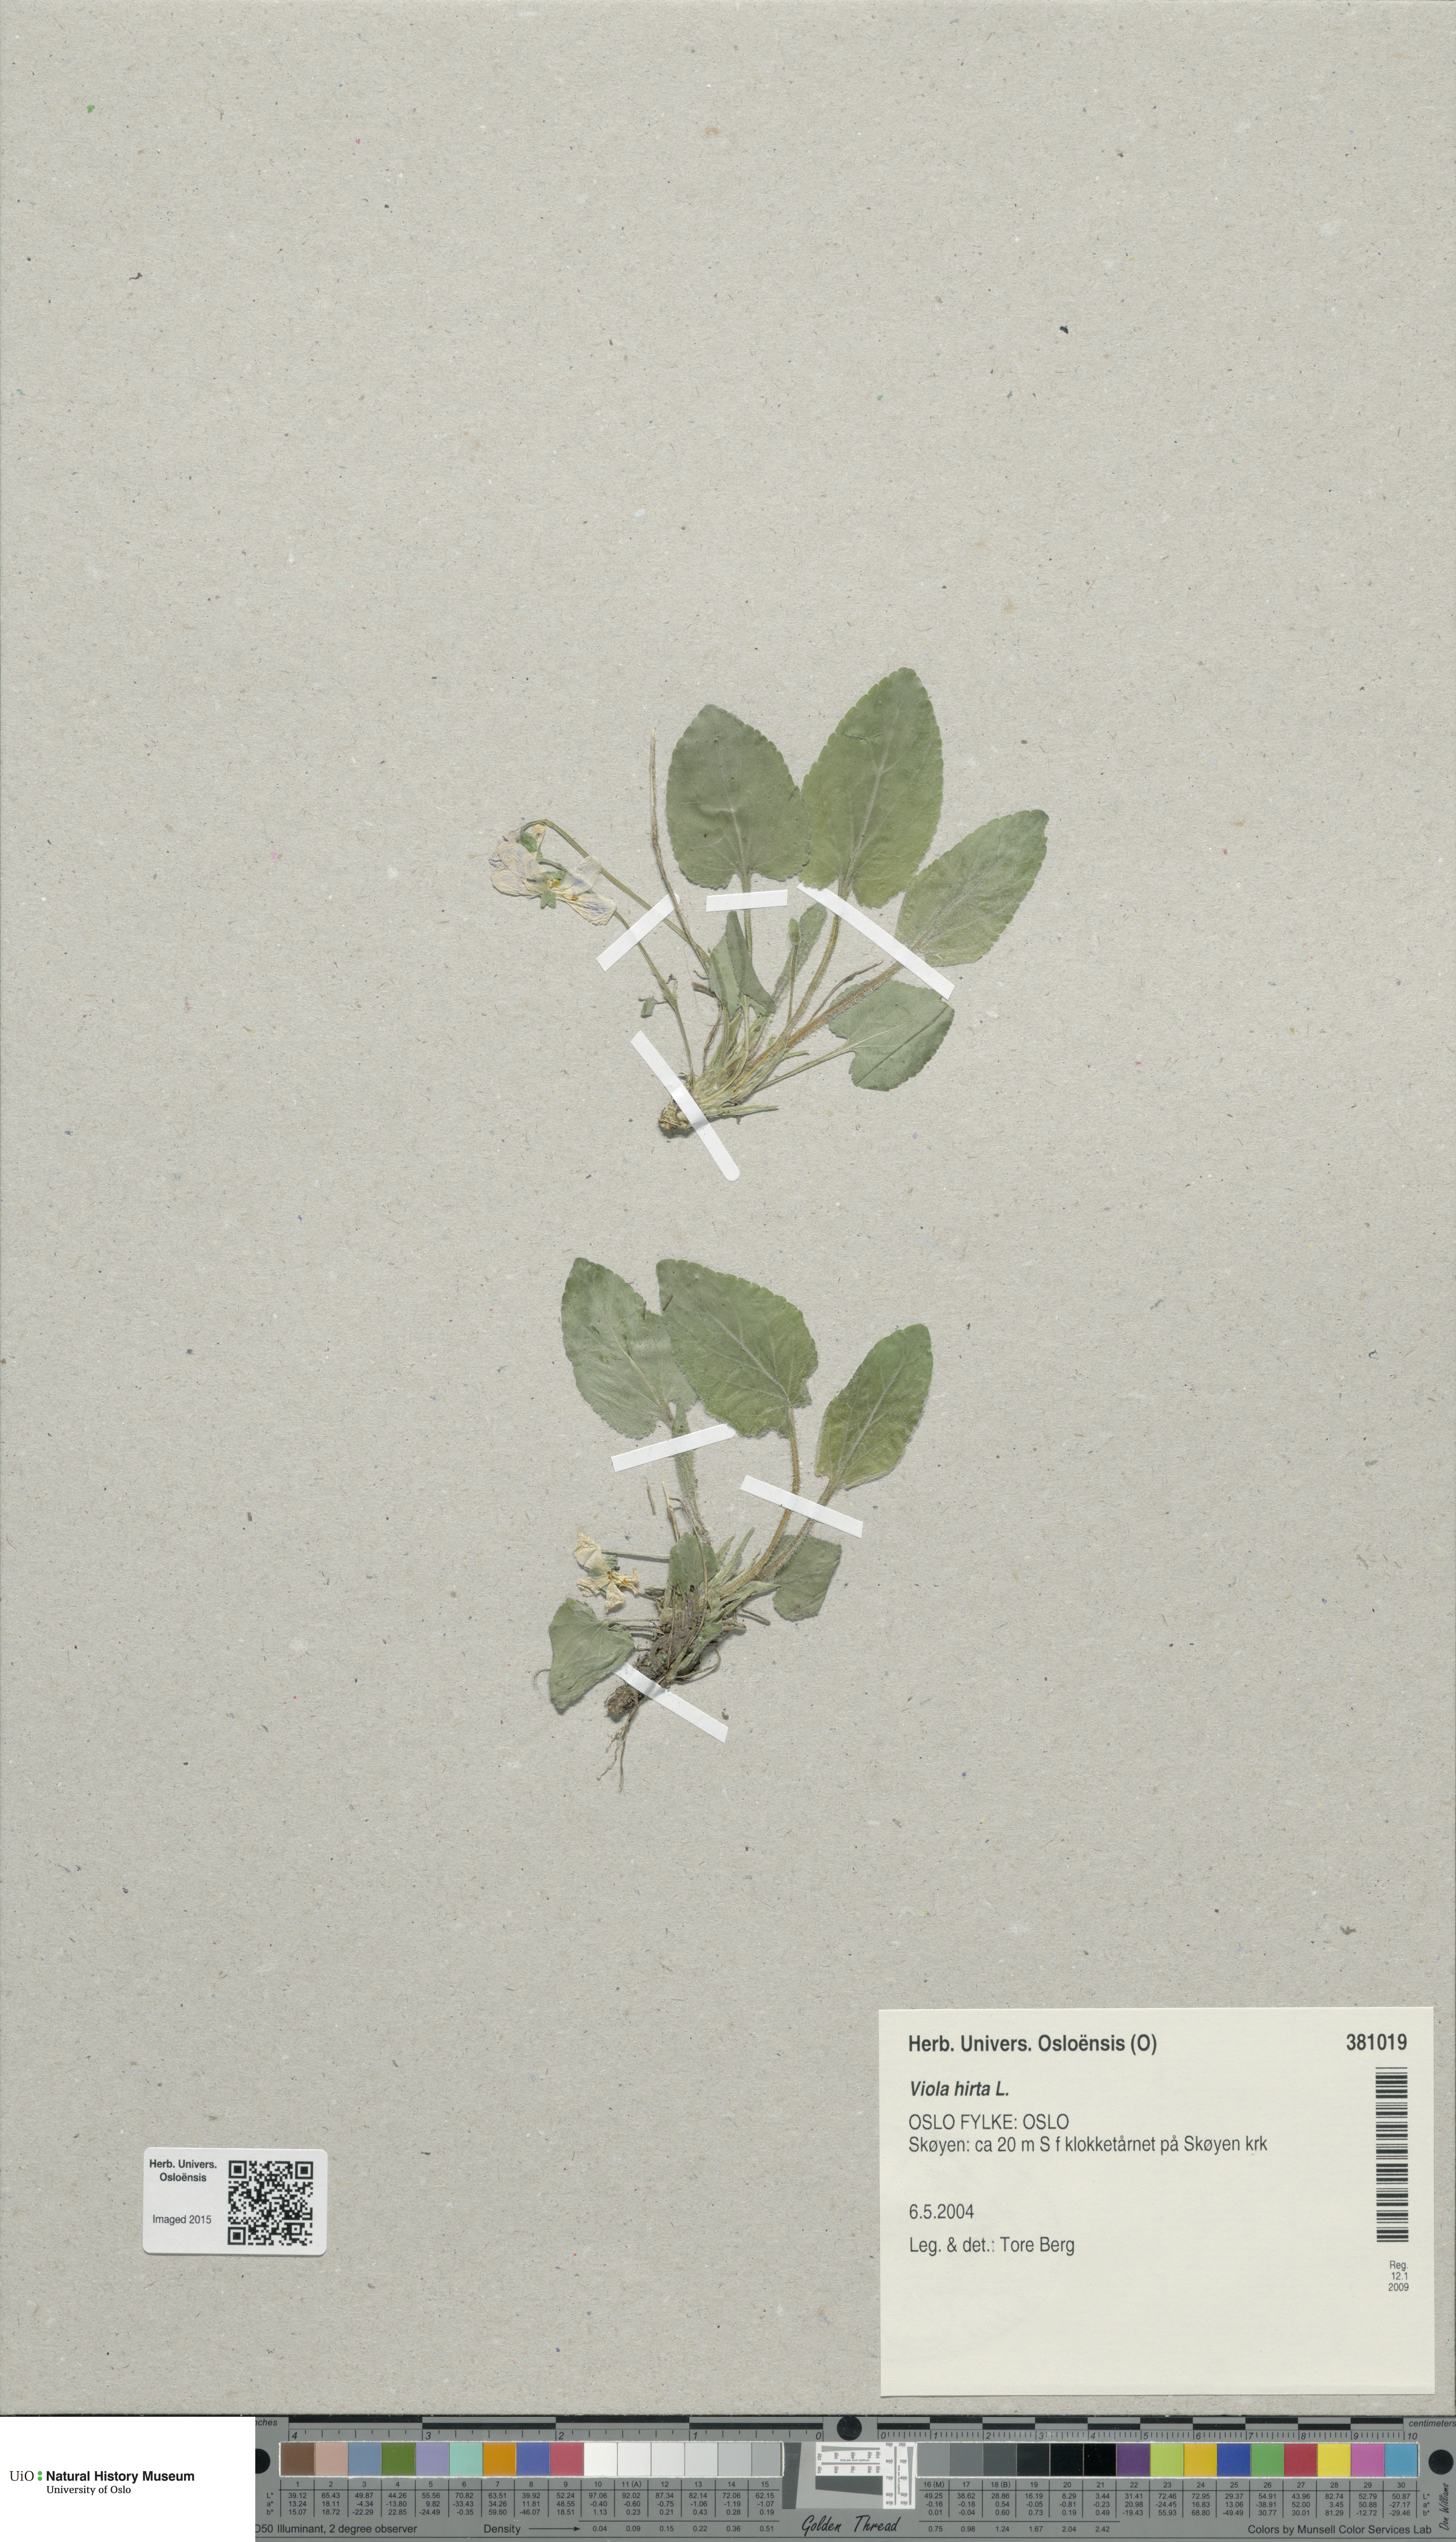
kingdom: Plantae
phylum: Tracheophyta
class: Magnoliopsida
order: Malpighiales
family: Violaceae
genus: Viola
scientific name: Viola hirta
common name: Hairy violet
